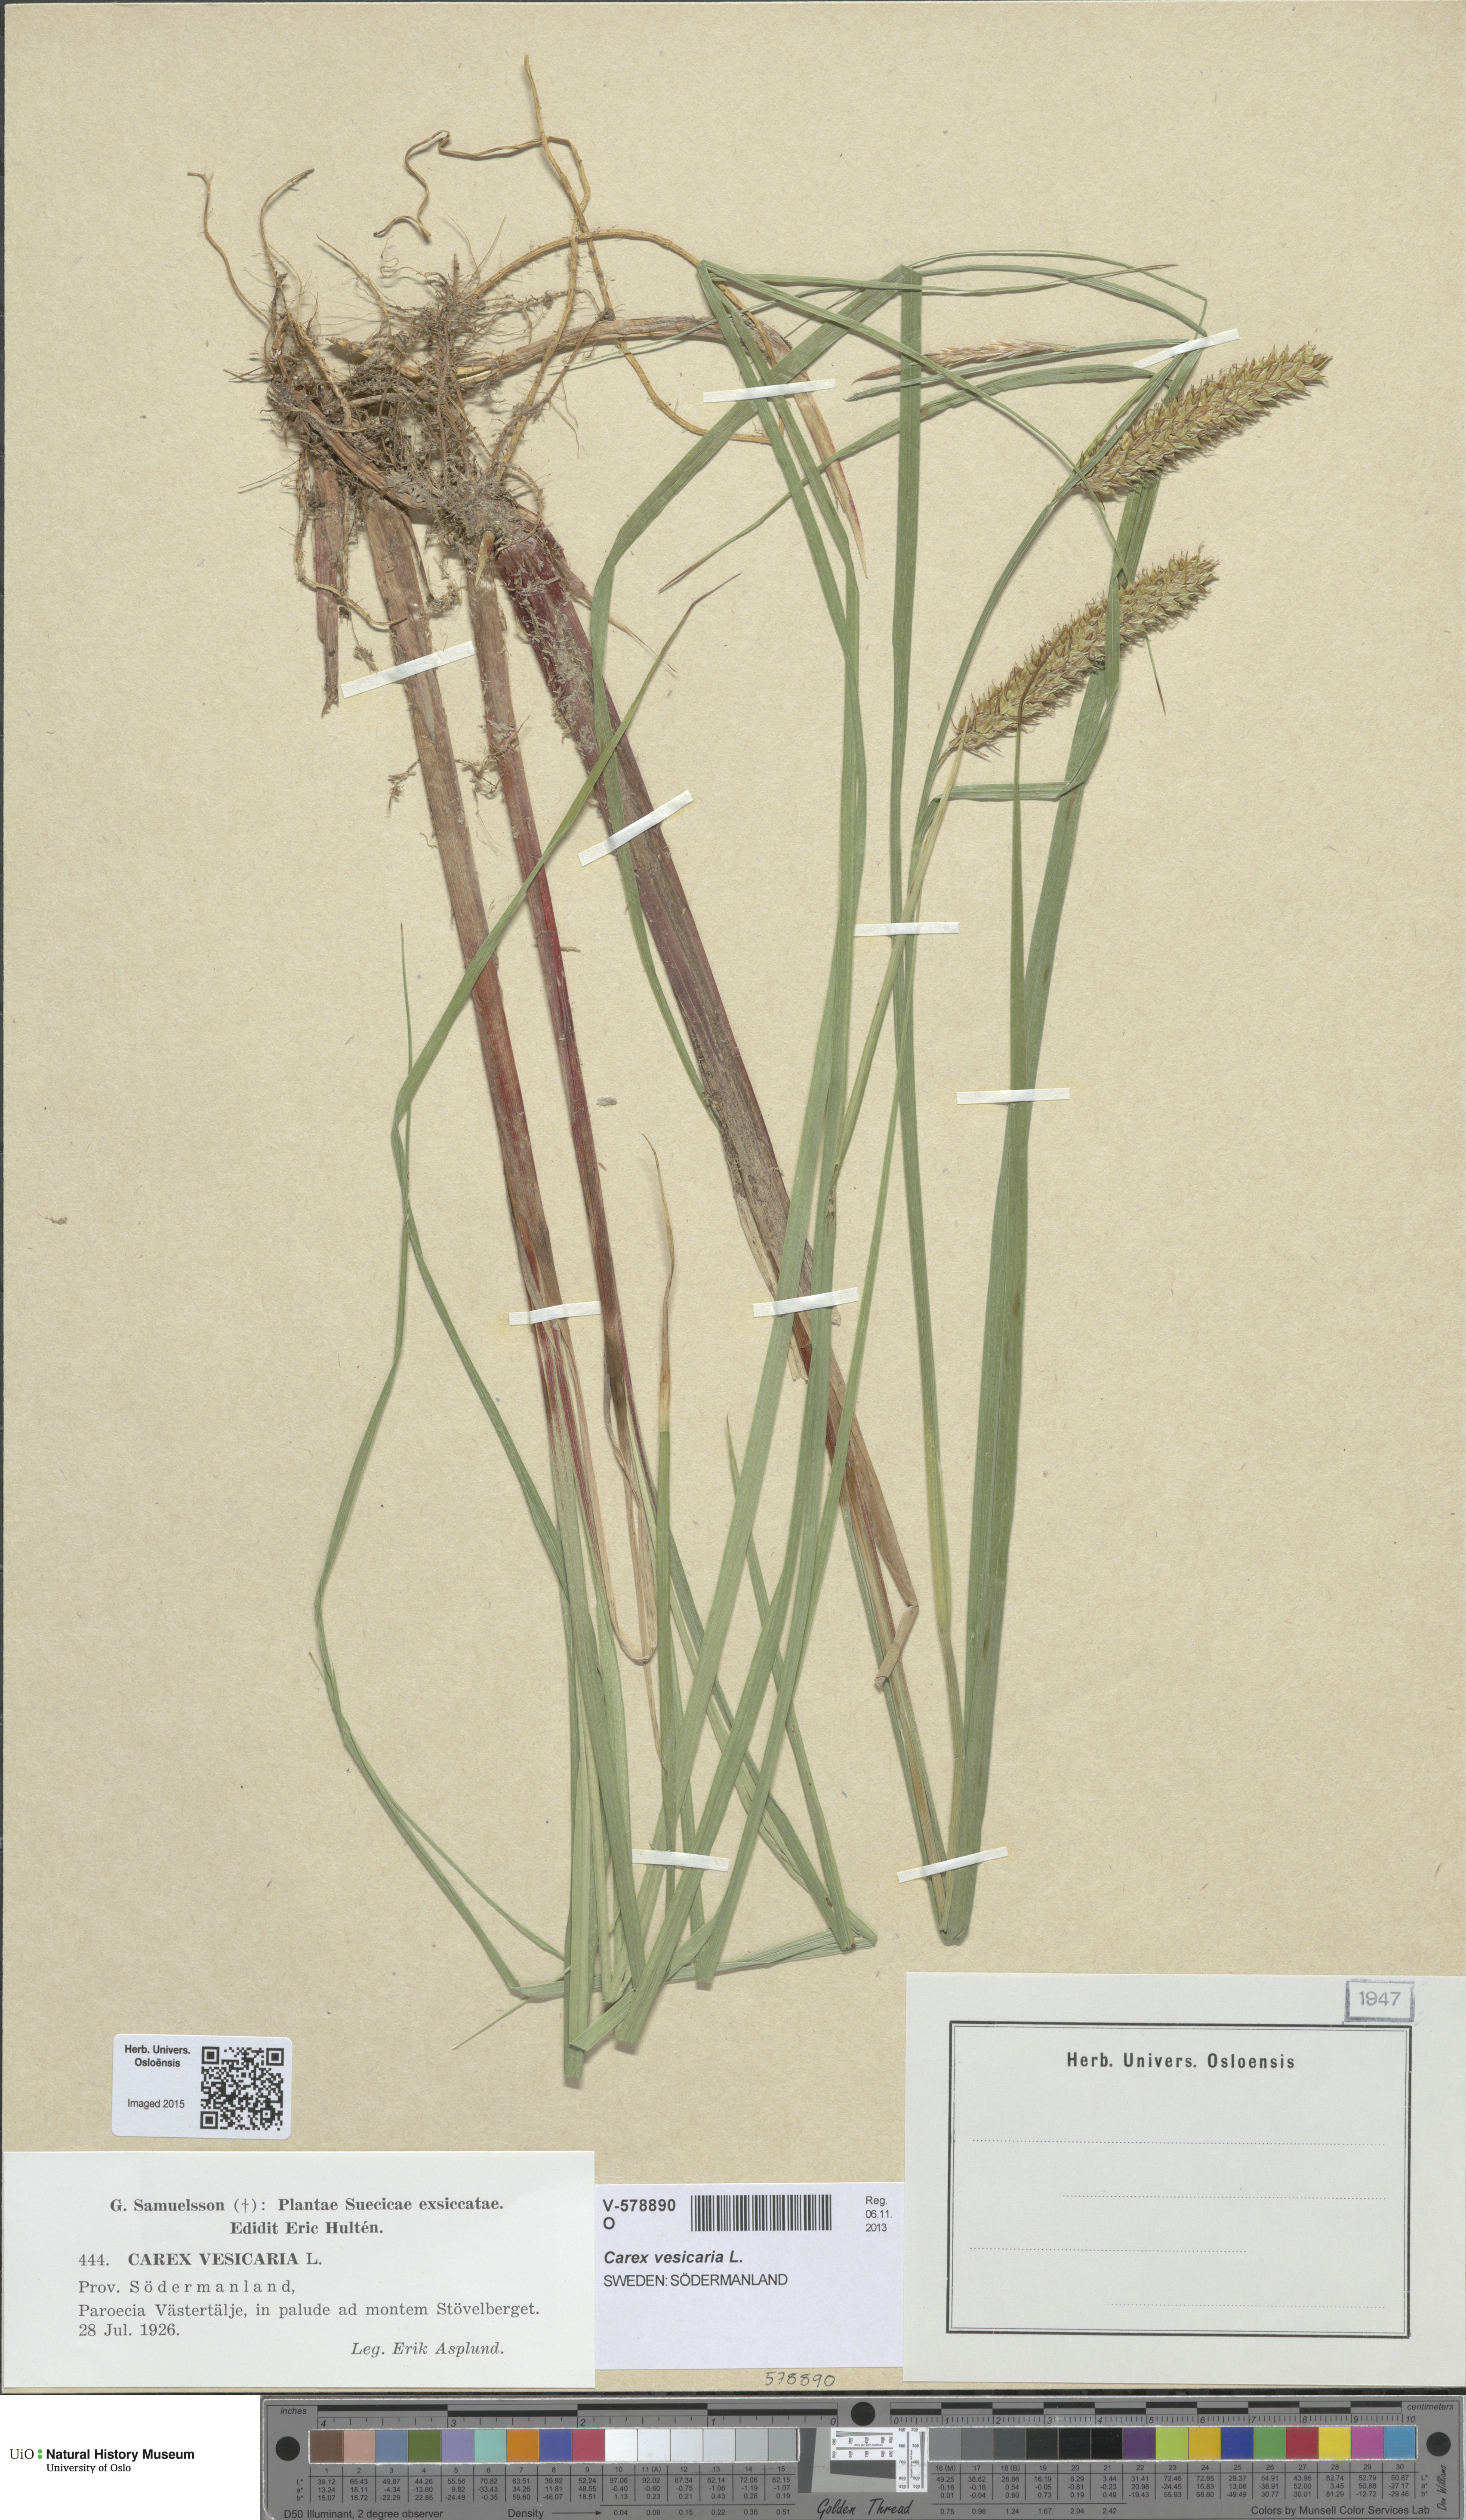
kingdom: Plantae
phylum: Tracheophyta
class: Liliopsida
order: Poales
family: Cyperaceae
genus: Carex
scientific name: Carex vesicaria
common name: Bladder-sedge
